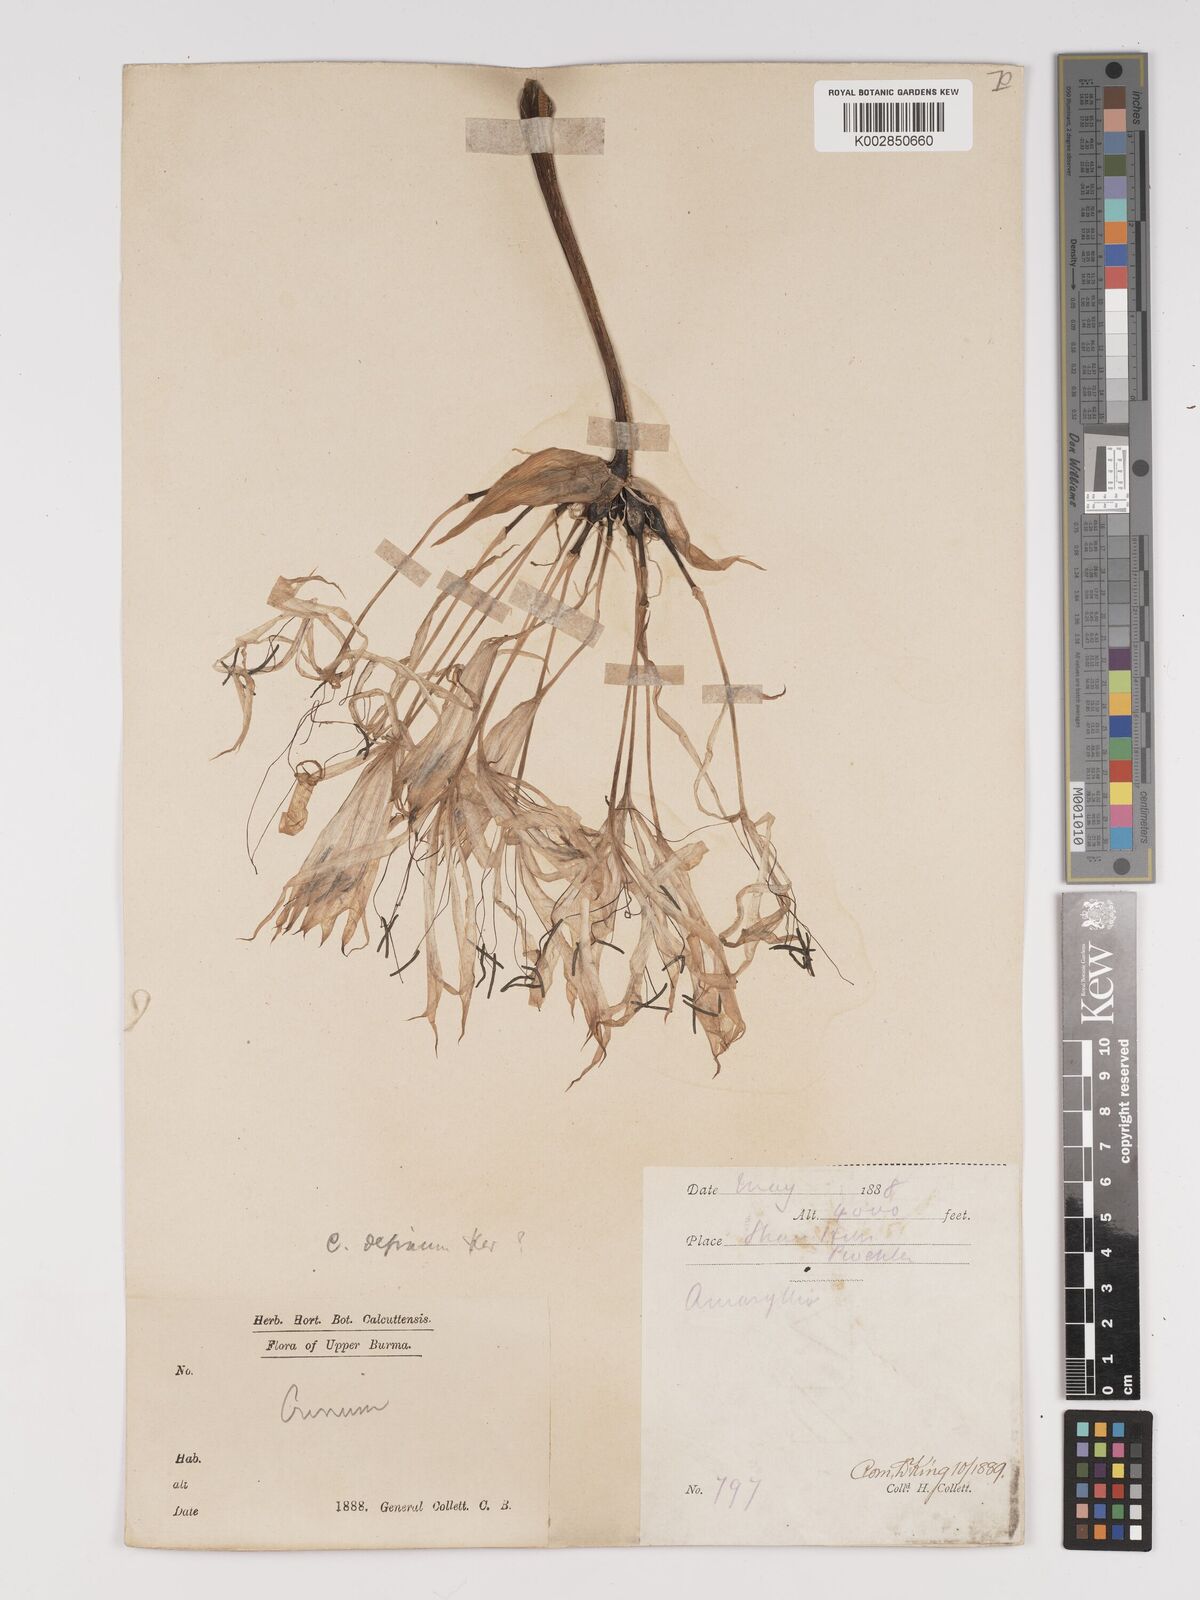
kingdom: Plantae
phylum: Tracheophyta
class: Liliopsida
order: Asparagales
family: Amaryllidaceae
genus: Crinum
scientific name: Crinum wattii
